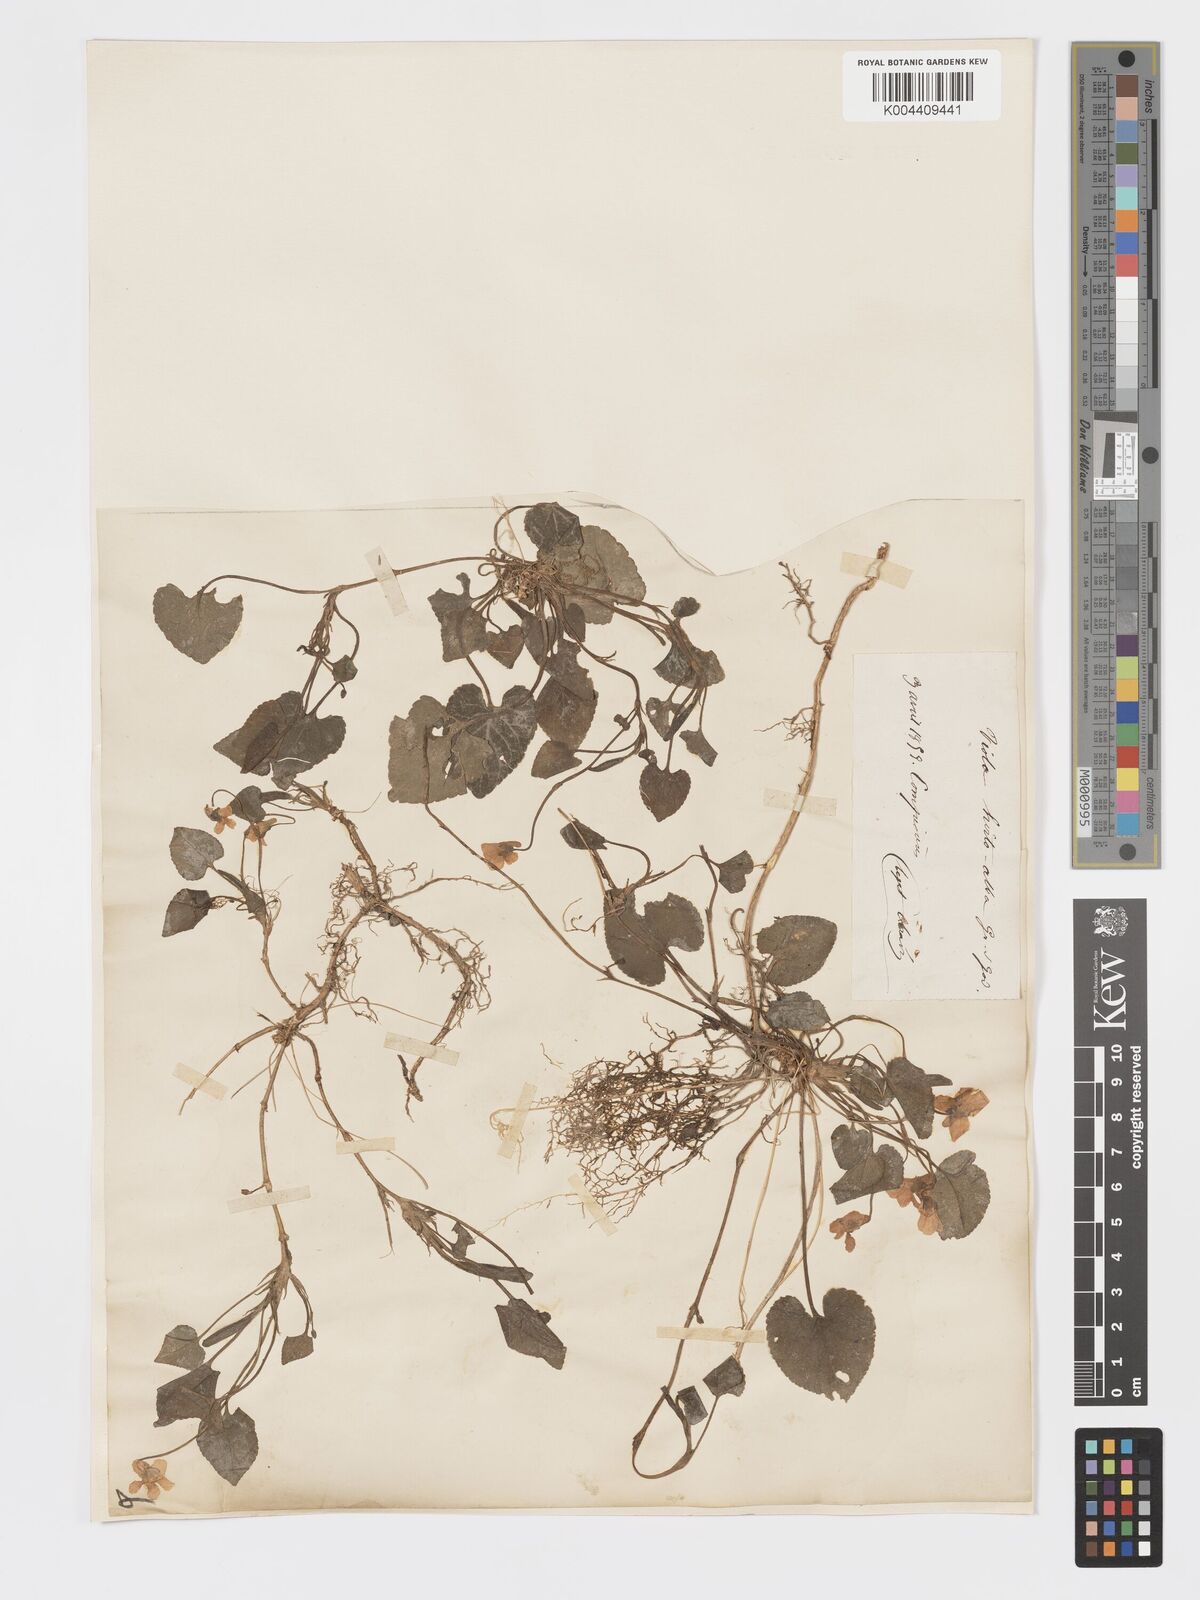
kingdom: Plantae
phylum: Tracheophyta
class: Magnoliopsida
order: Malpighiales
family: Violaceae
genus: Viola
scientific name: Viola alba
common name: White violet
